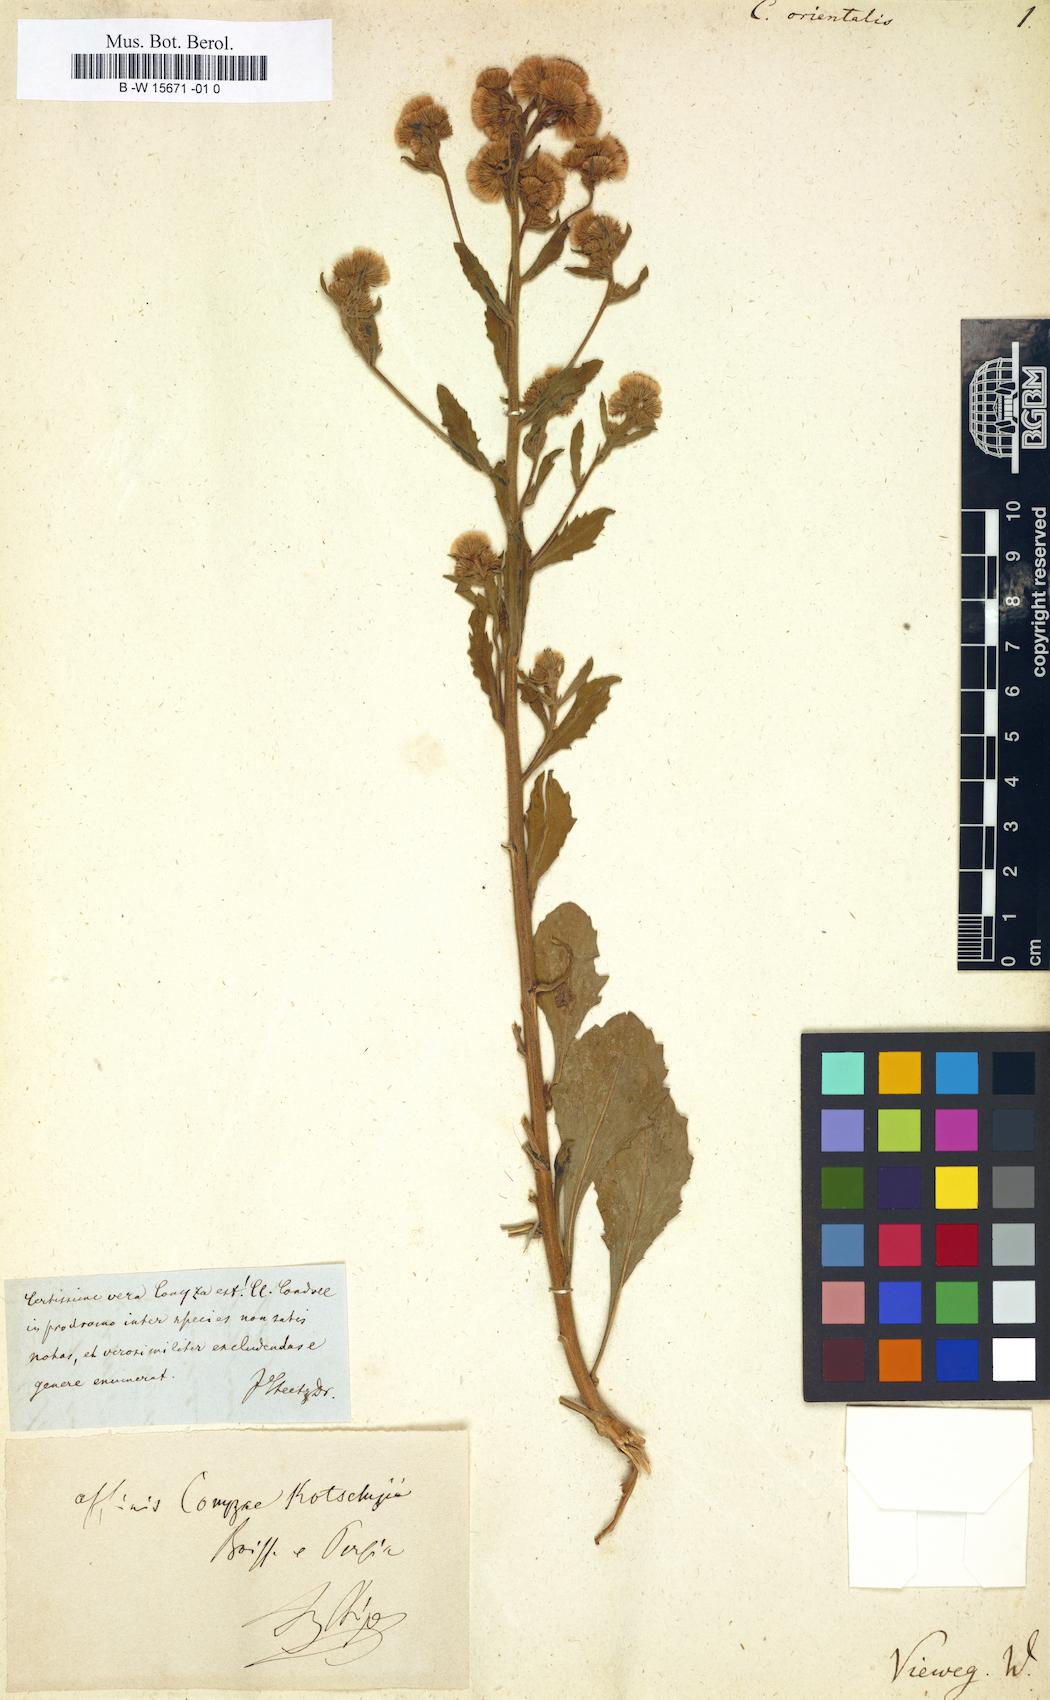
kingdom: Plantae
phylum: Tracheophyta
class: Magnoliopsida
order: Asterales
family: Asteraceae
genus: Erigeron
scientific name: Erigeron Conyza orientalis
